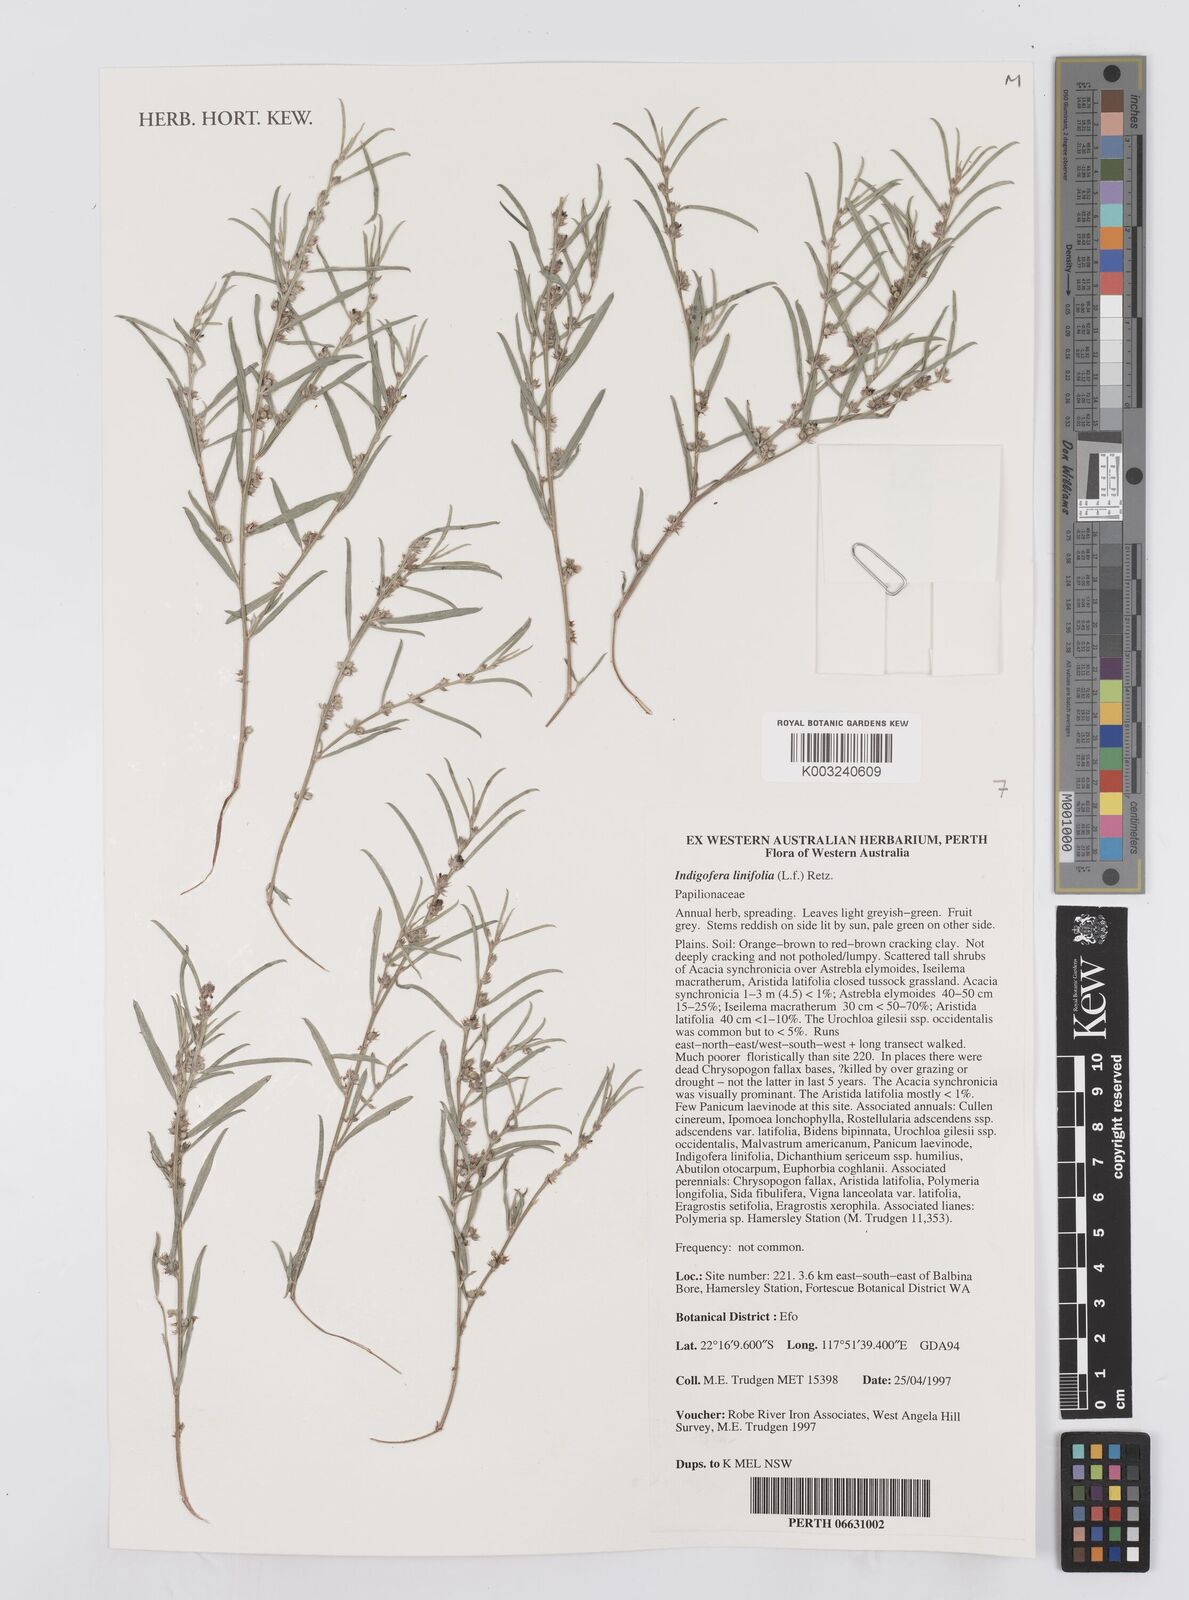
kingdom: Plantae
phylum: Tracheophyta
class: Magnoliopsida
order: Fabales
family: Fabaceae
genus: Indigofera
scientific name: Indigofera linifolia
